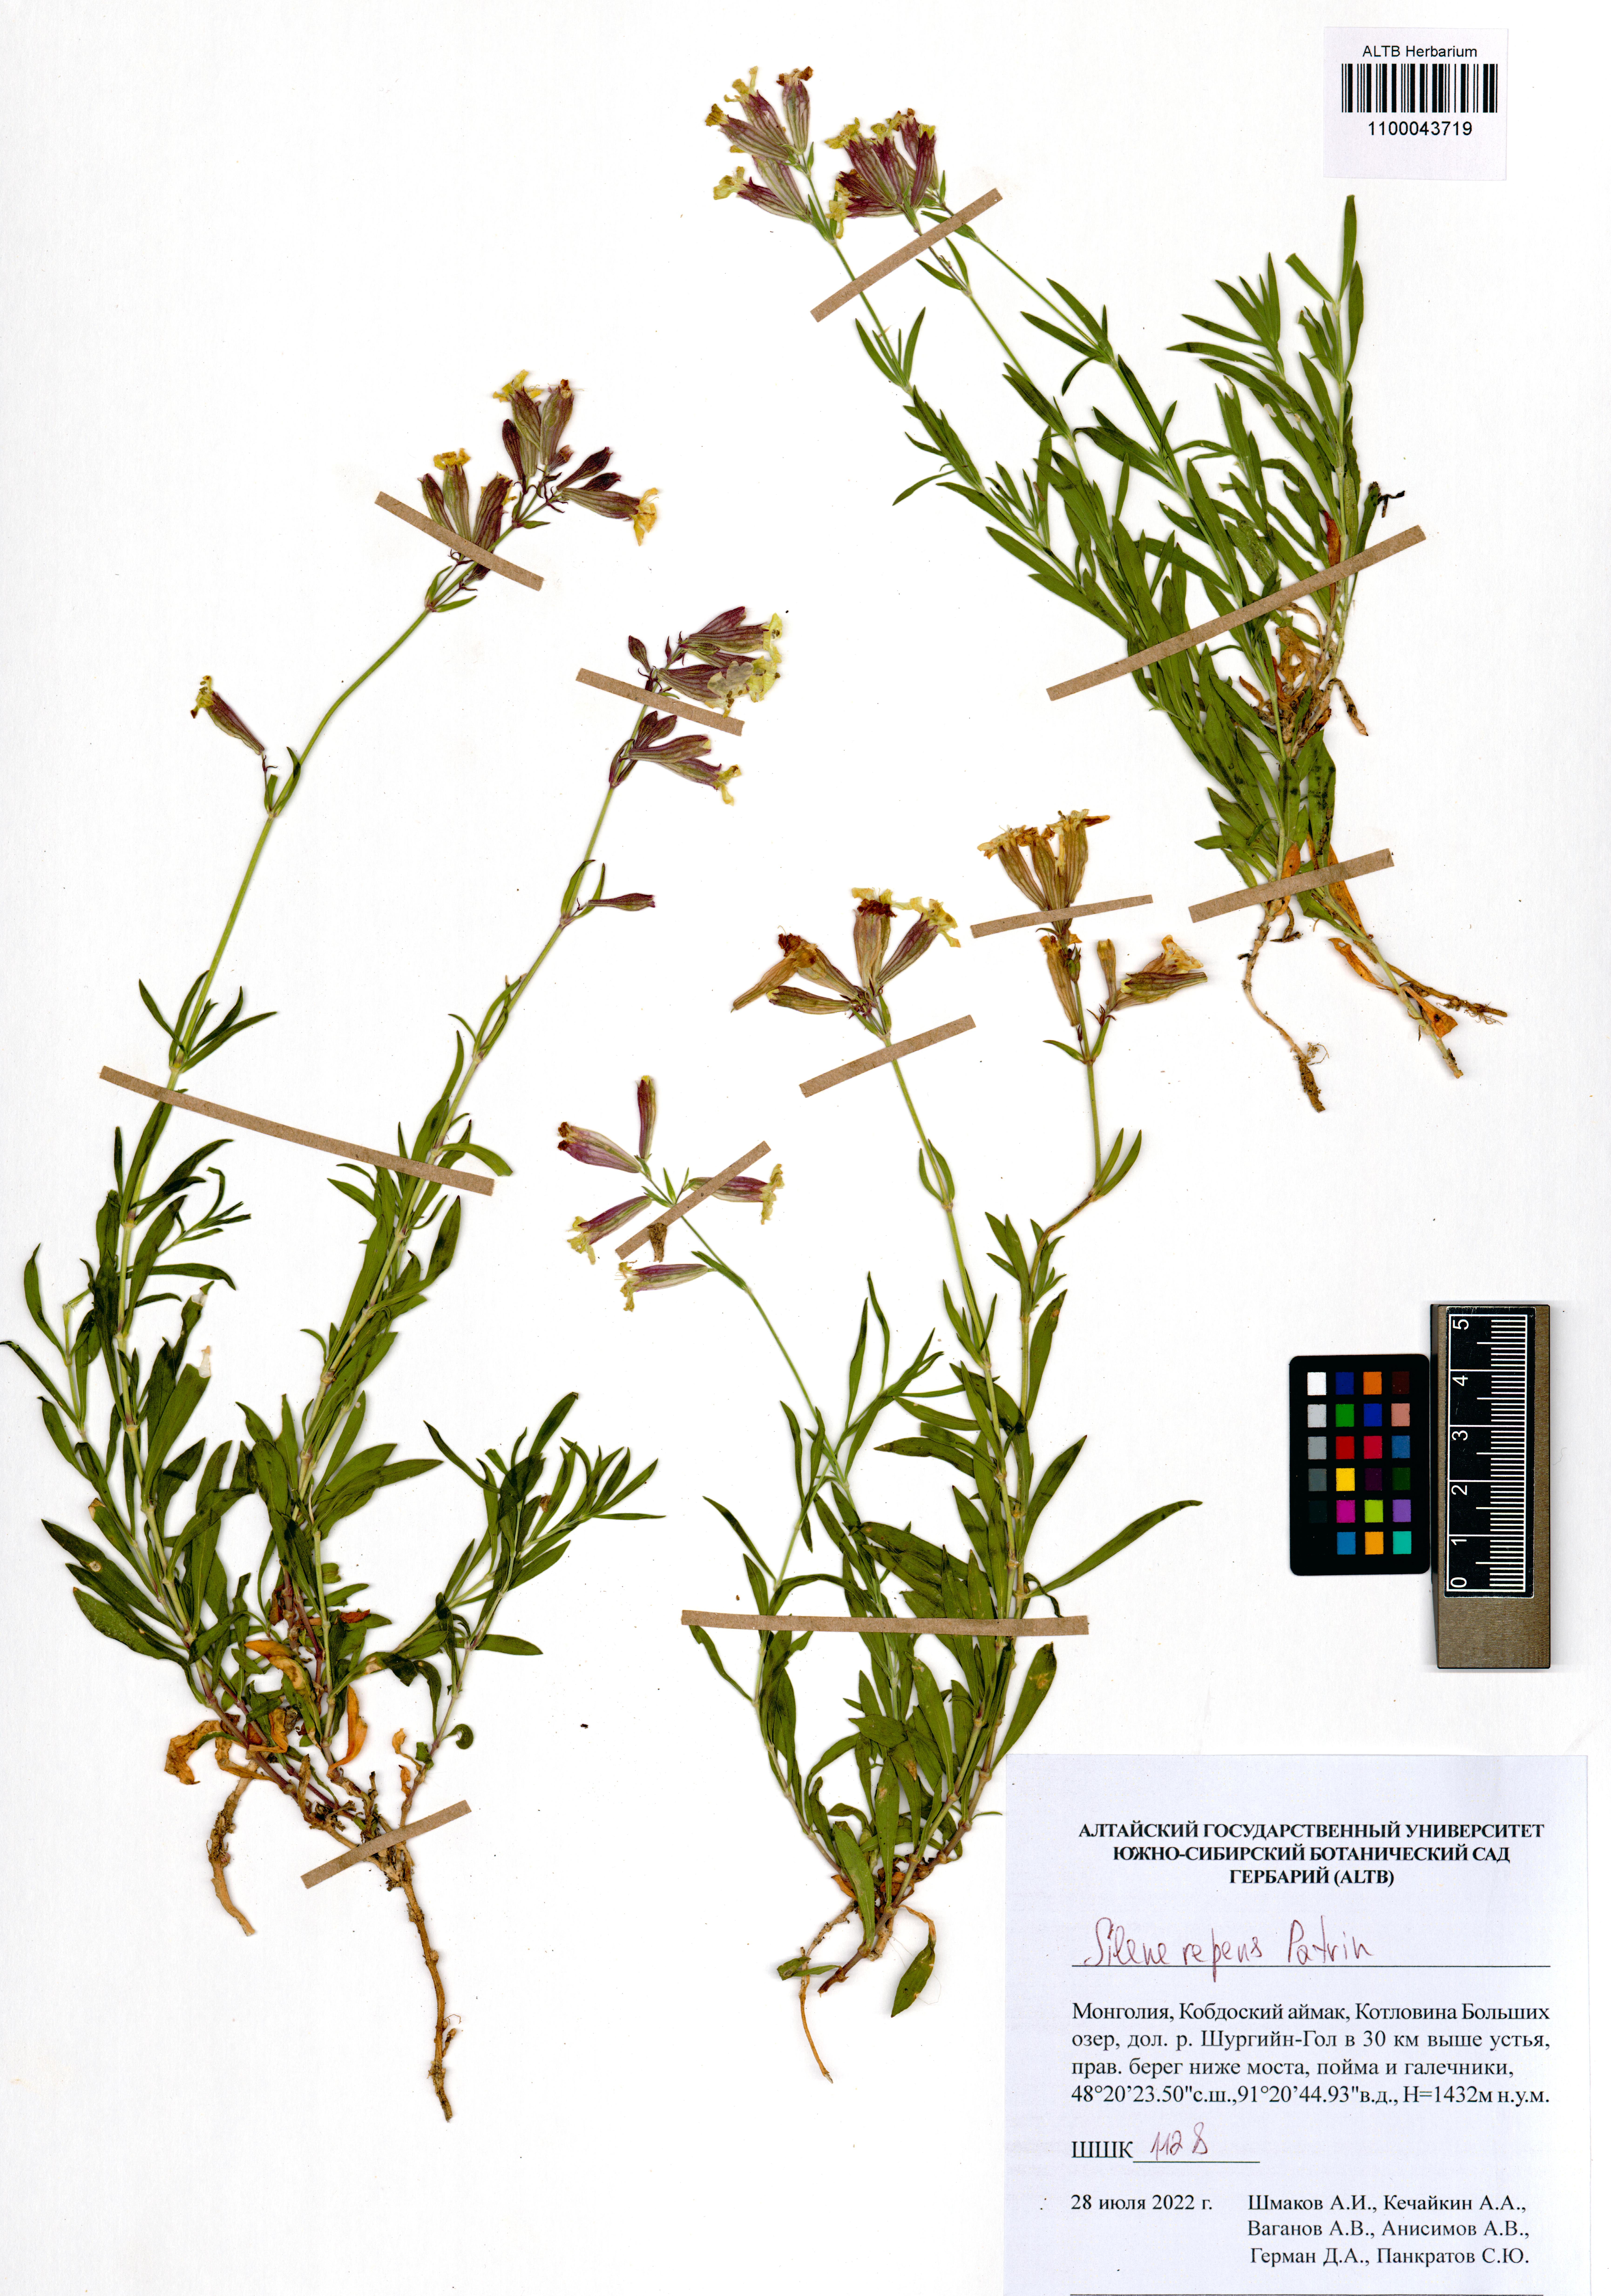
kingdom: Plantae
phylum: Tracheophyta
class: Magnoliopsida
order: Caryophyllales
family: Caryophyllaceae
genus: Silene
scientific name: Silene repens
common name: Pink campion
